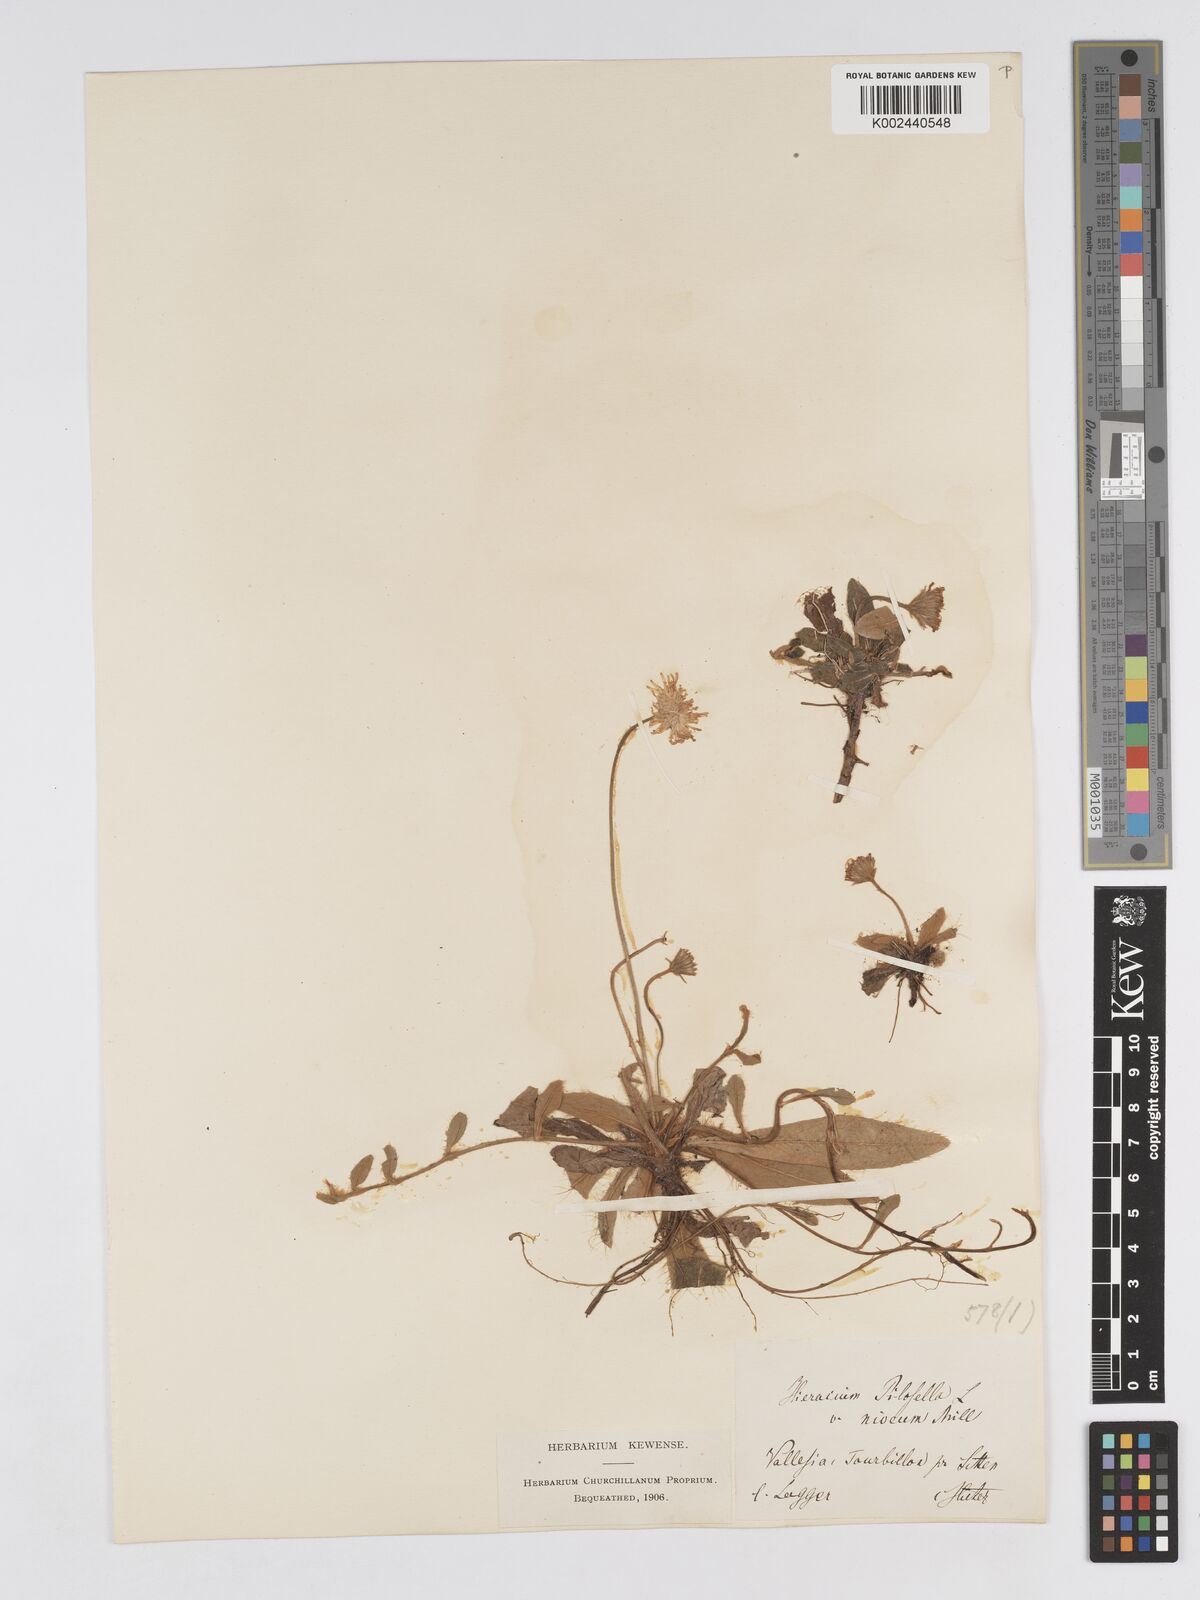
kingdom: Plantae
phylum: Tracheophyta
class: Magnoliopsida
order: Asterales
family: Asteraceae
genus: Pilosella
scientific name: Pilosella tardans
